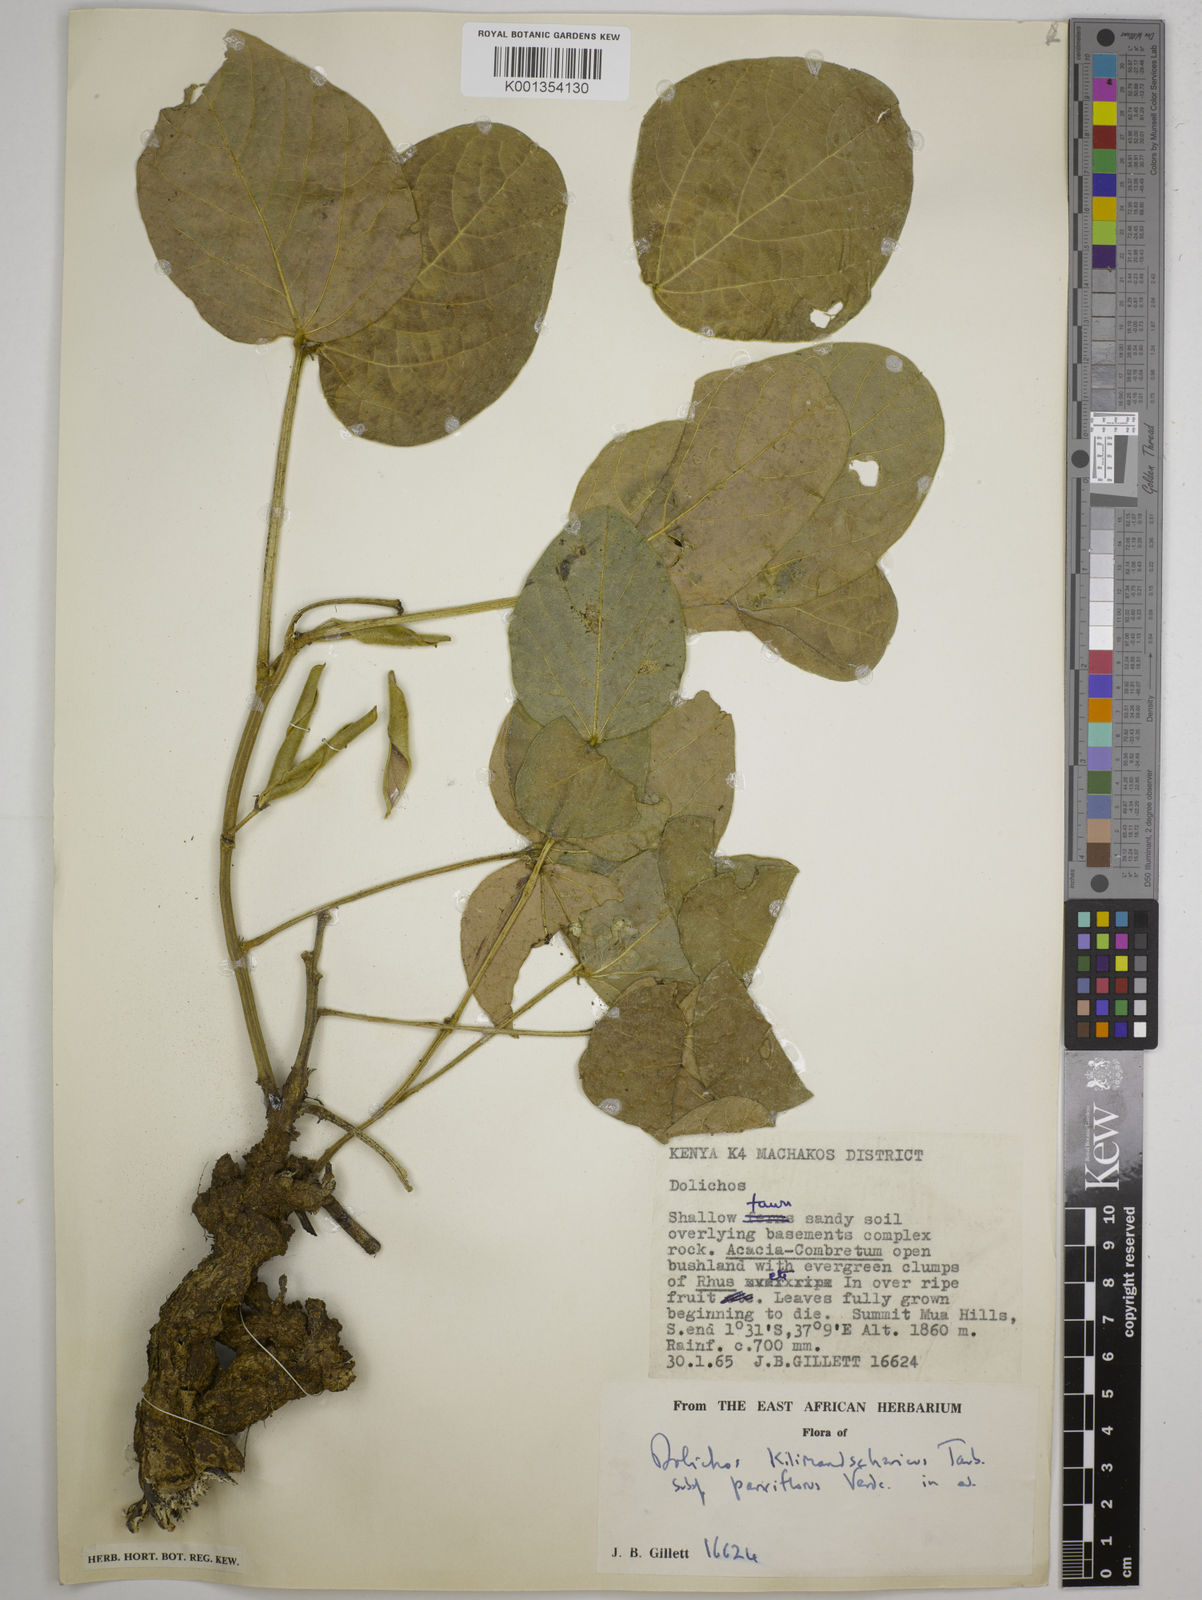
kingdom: Plantae
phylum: Tracheophyta
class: Magnoliopsida
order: Fabales
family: Fabaceae
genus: Dolichos
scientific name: Dolichos
